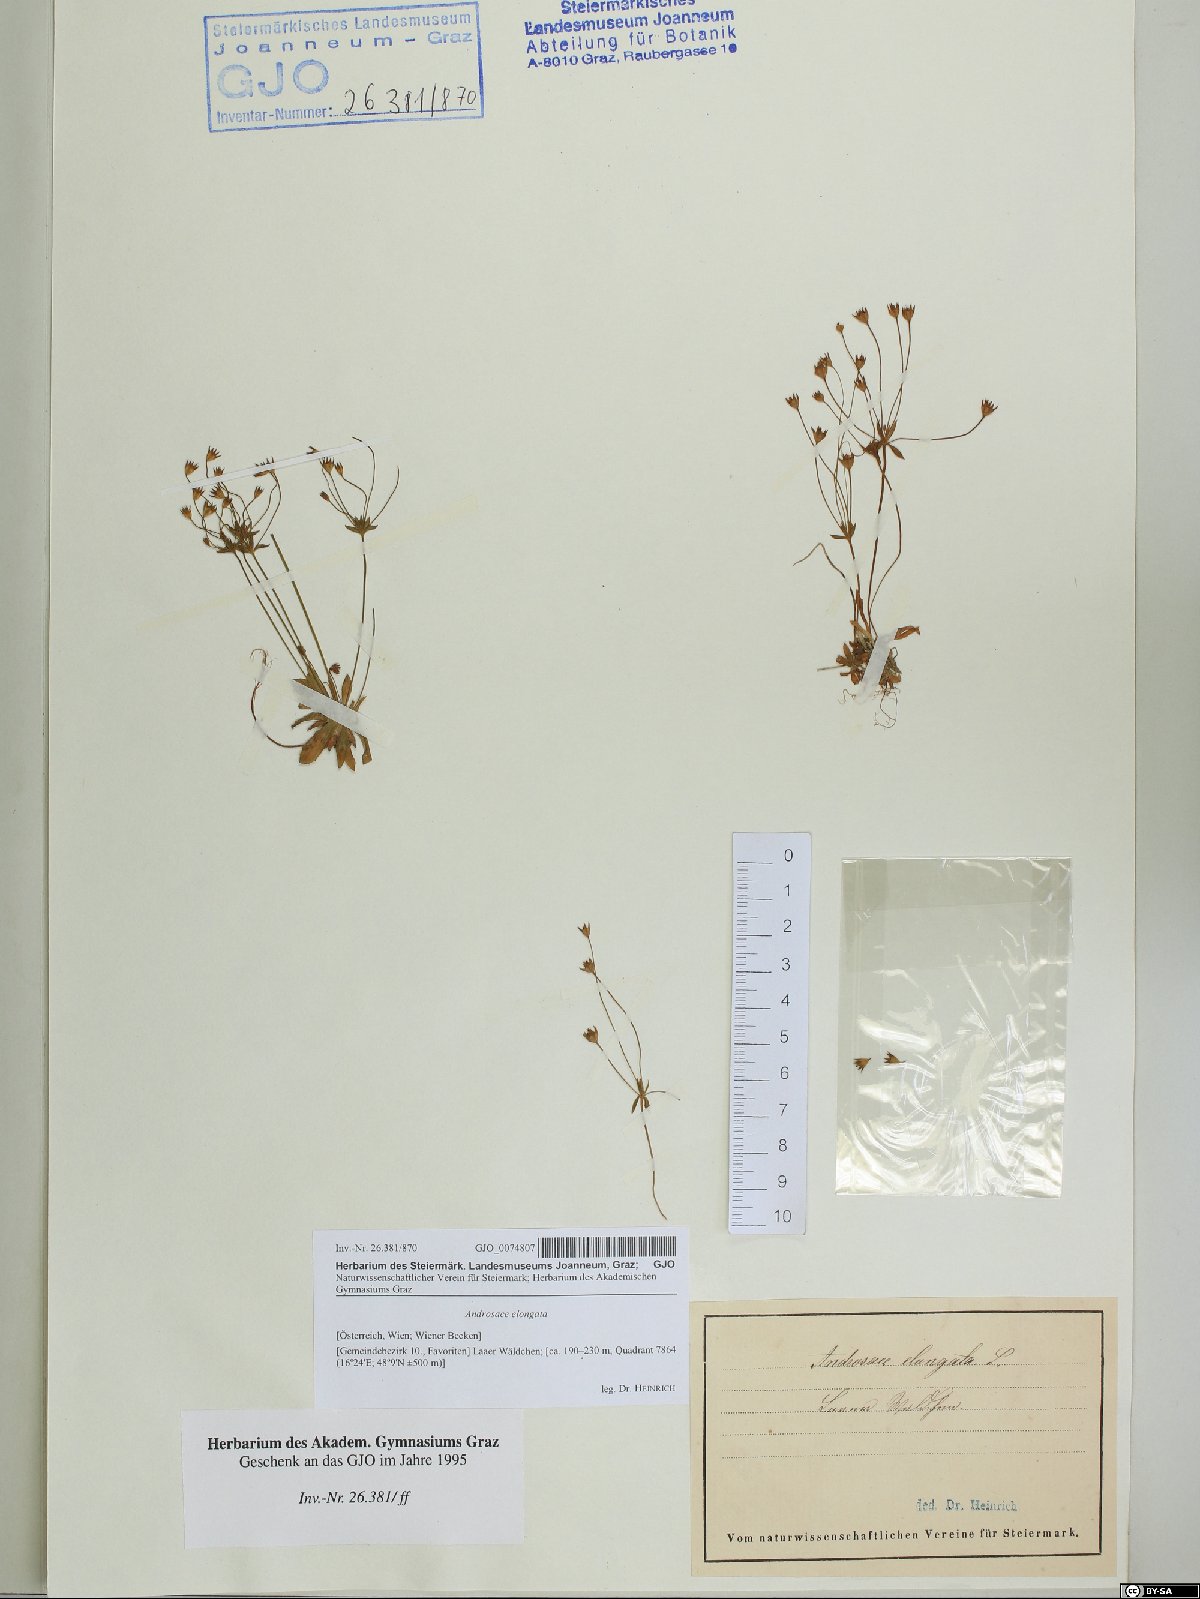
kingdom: Plantae
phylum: Tracheophyta
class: Magnoliopsida
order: Ericales
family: Primulaceae
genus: Androsace
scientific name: Androsace elongata
